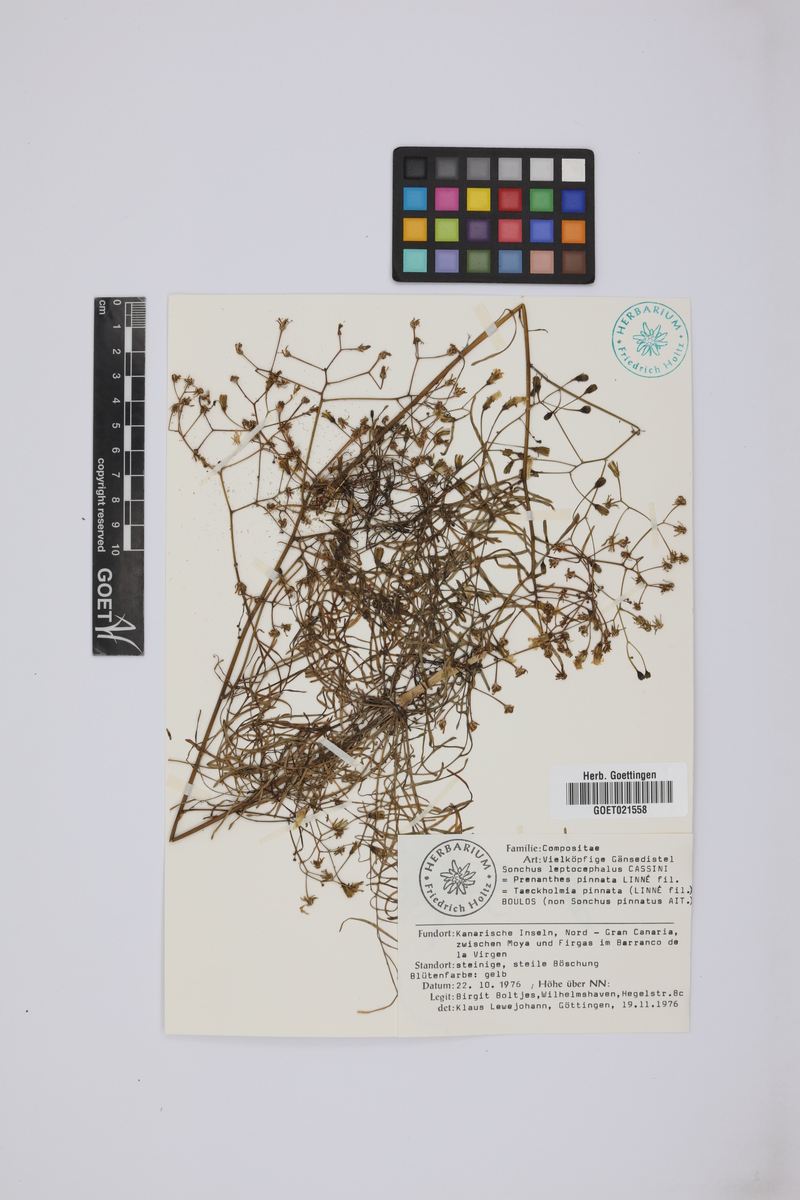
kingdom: Plantae
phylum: Tracheophyta
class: Magnoliopsida
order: Asterales
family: Asteraceae
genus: Sonchus
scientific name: Sonchus leptocephalus
